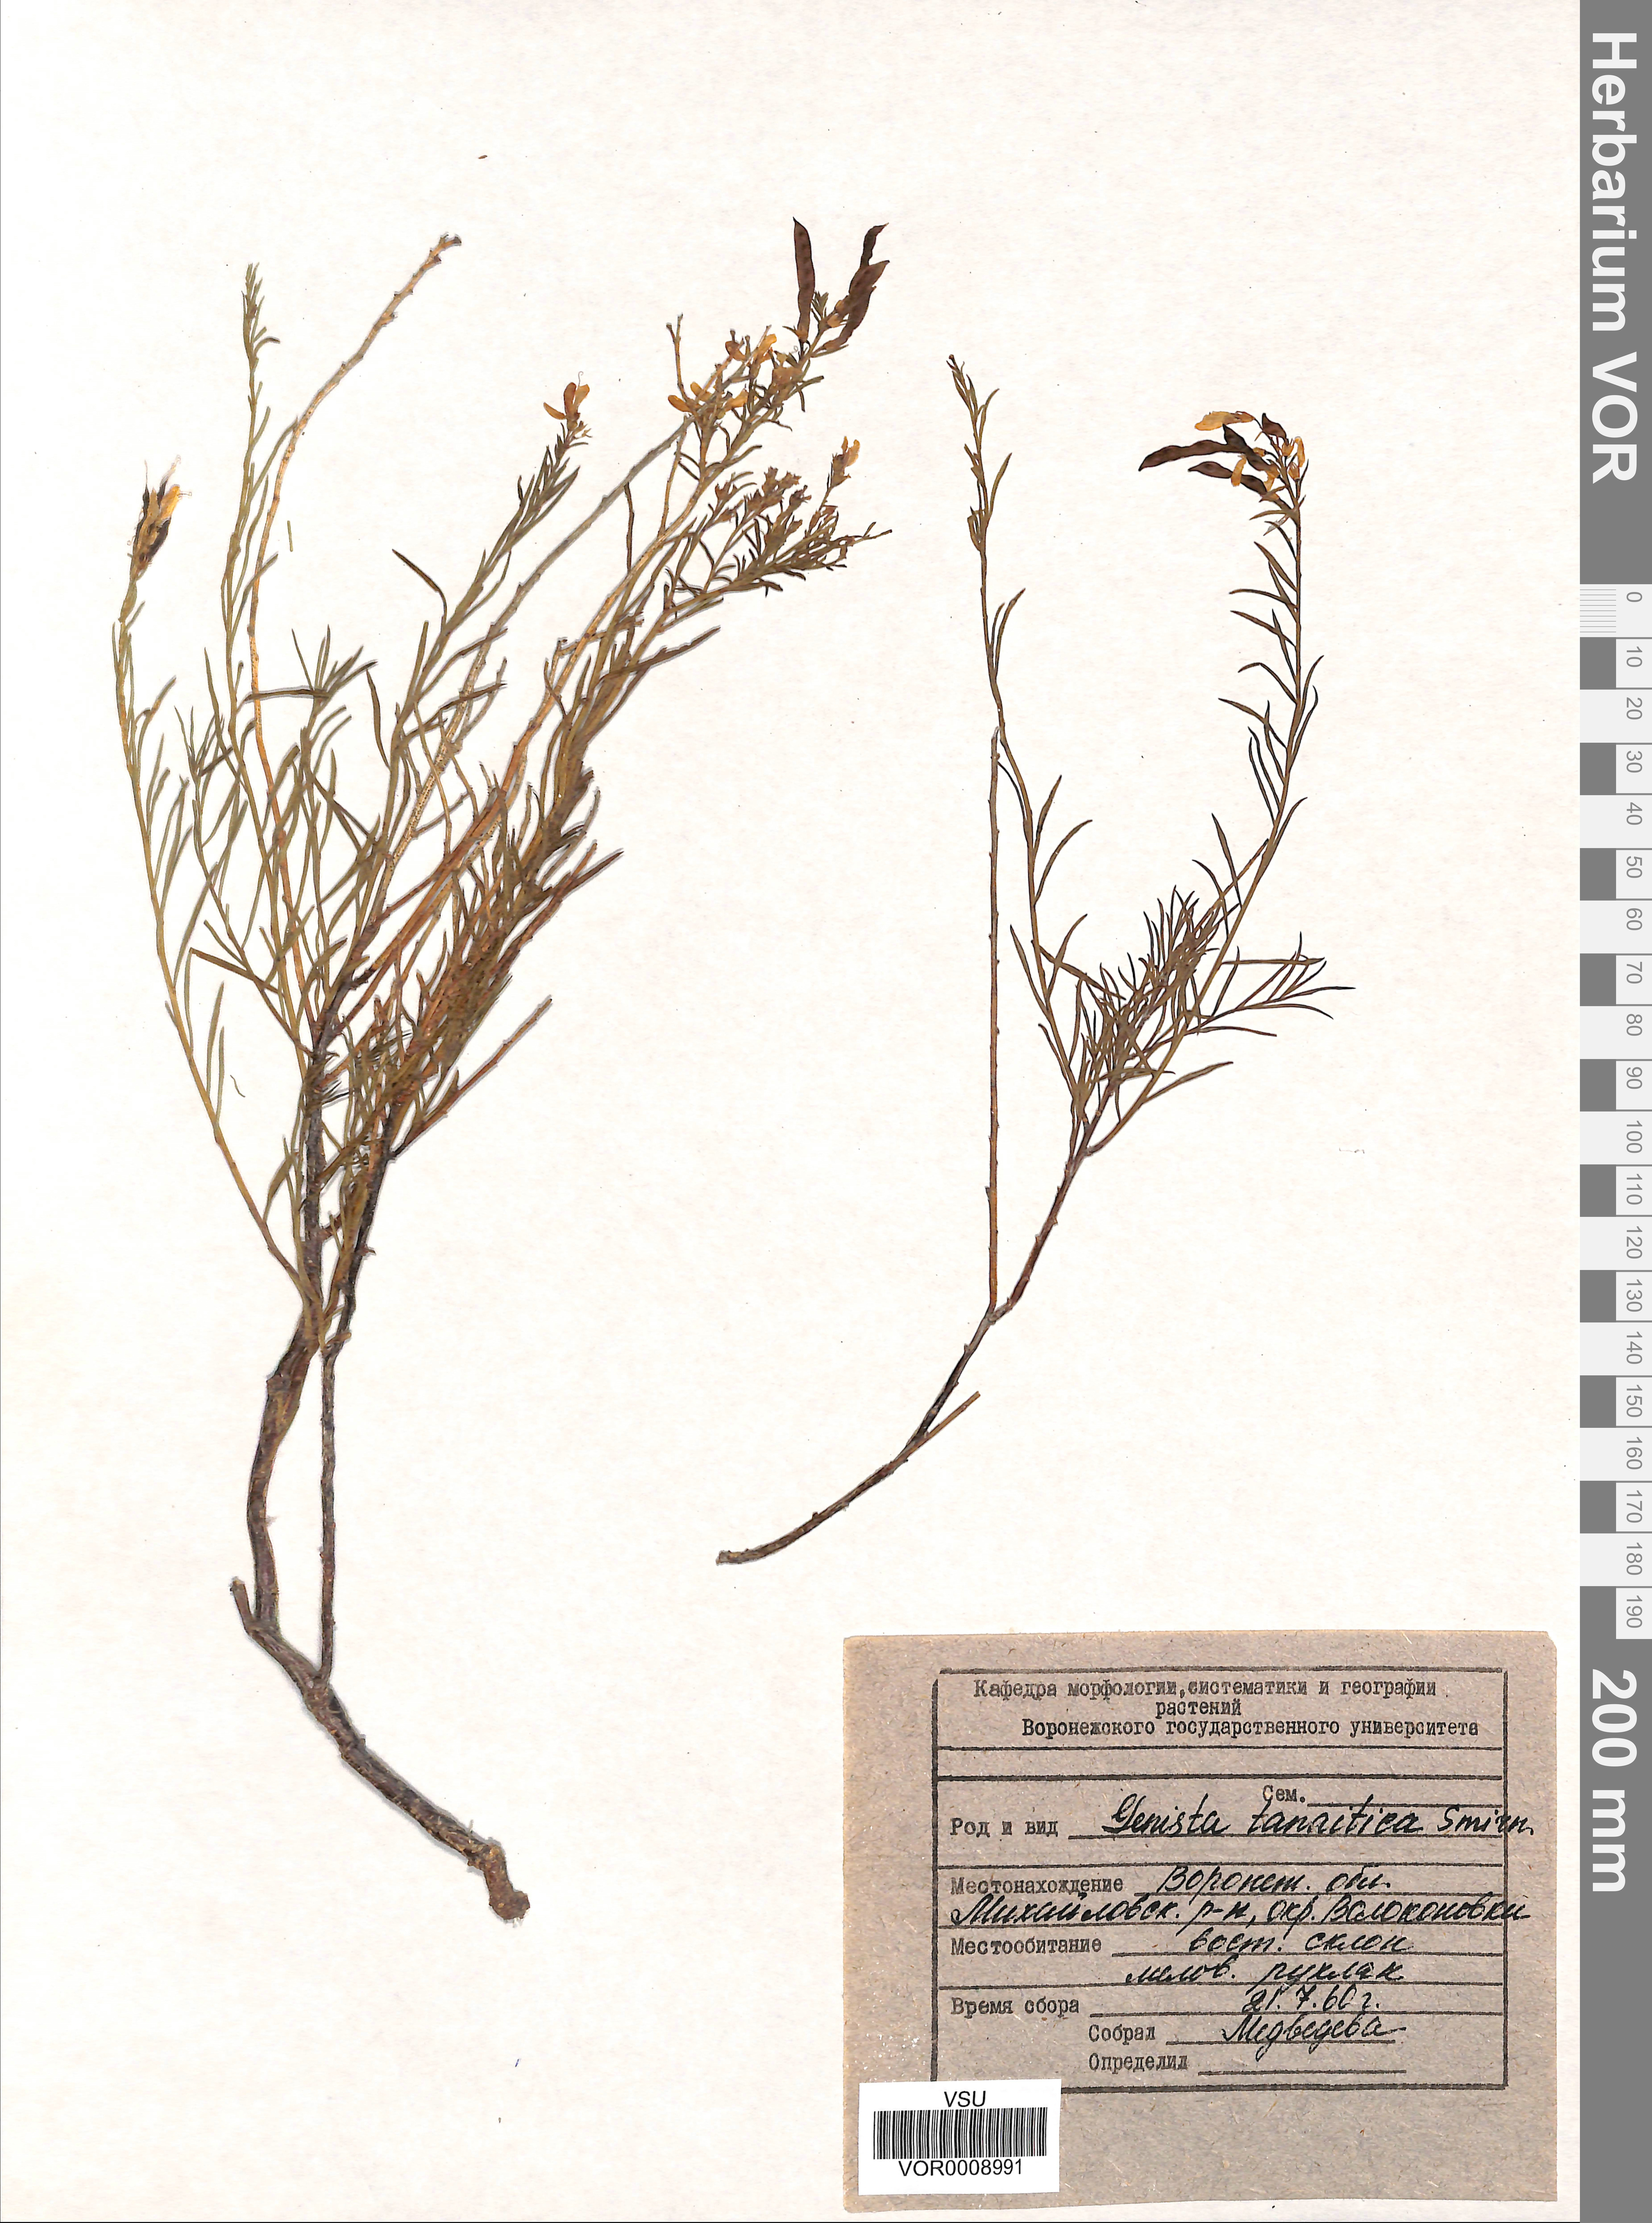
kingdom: Plantae
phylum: Tracheophyta
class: Magnoliopsida
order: Fabales
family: Fabaceae
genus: Genista
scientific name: Genista tinctoria
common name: Dyer's greenweed
